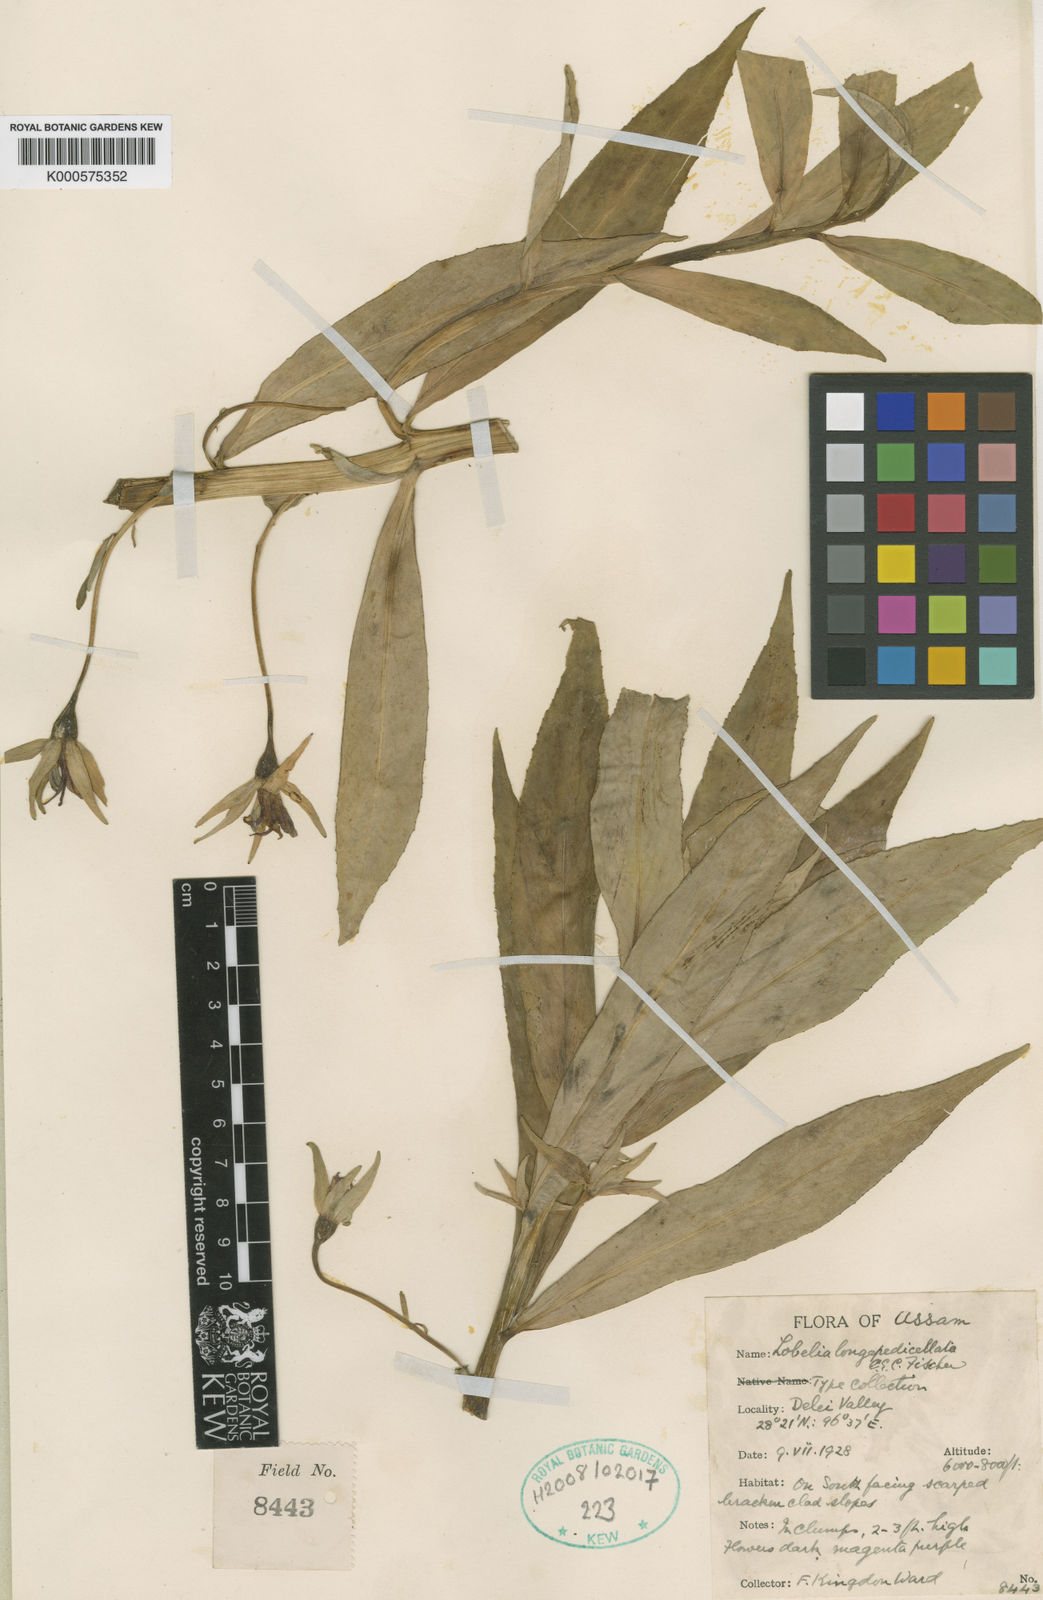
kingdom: Plantae
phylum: Tracheophyta
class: Magnoliopsida
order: Asterales
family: Campanulaceae
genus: Lobelia
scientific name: Lobelia
